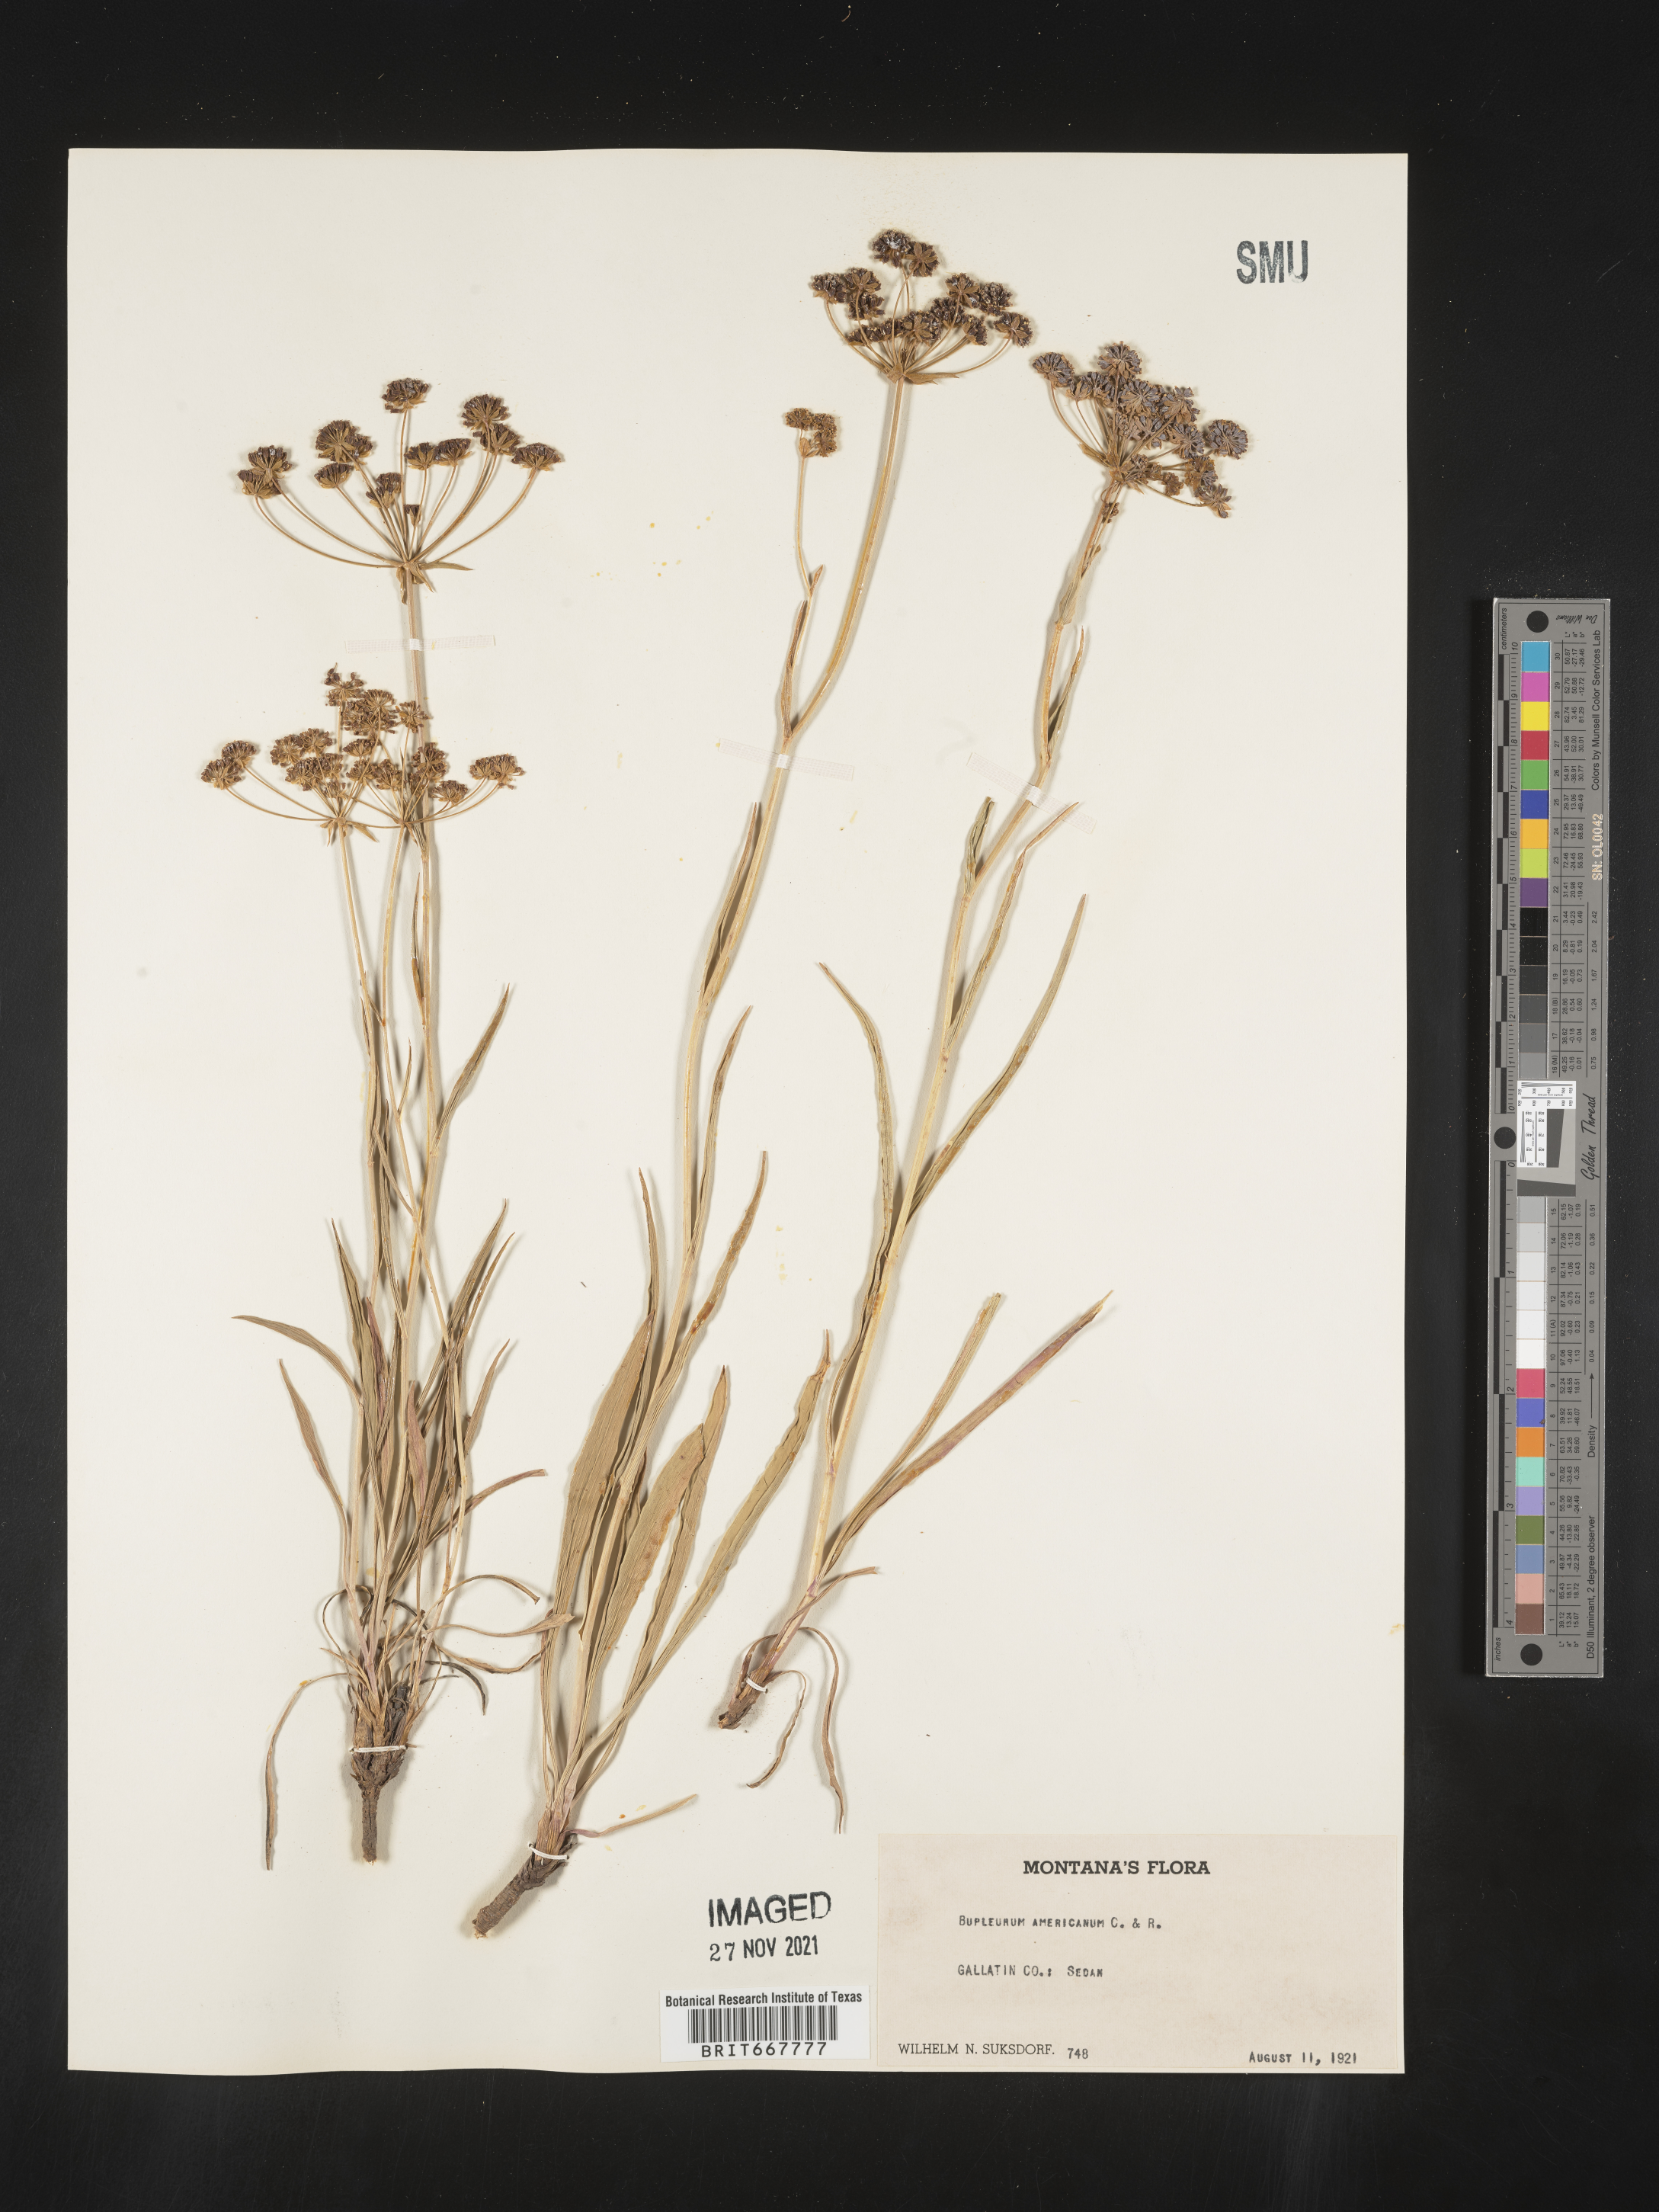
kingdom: Plantae
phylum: Tracheophyta
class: Magnoliopsida
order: Apiales
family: Apiaceae
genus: Bupleurum
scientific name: Bupleurum
